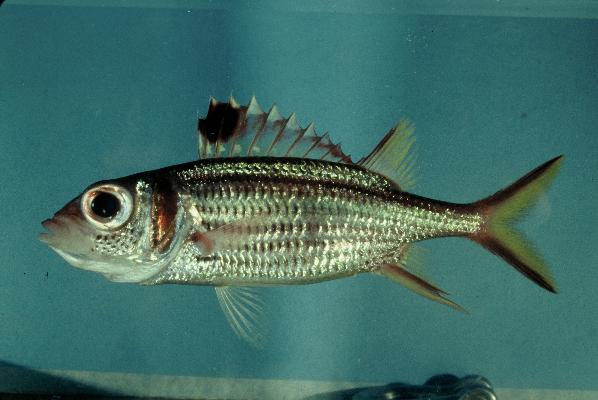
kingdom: Animalia
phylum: Chordata
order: Beryciformes
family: Holocentridae
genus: Neoniphon
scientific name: Neoniphon sammara
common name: Sammara squirrelfish
